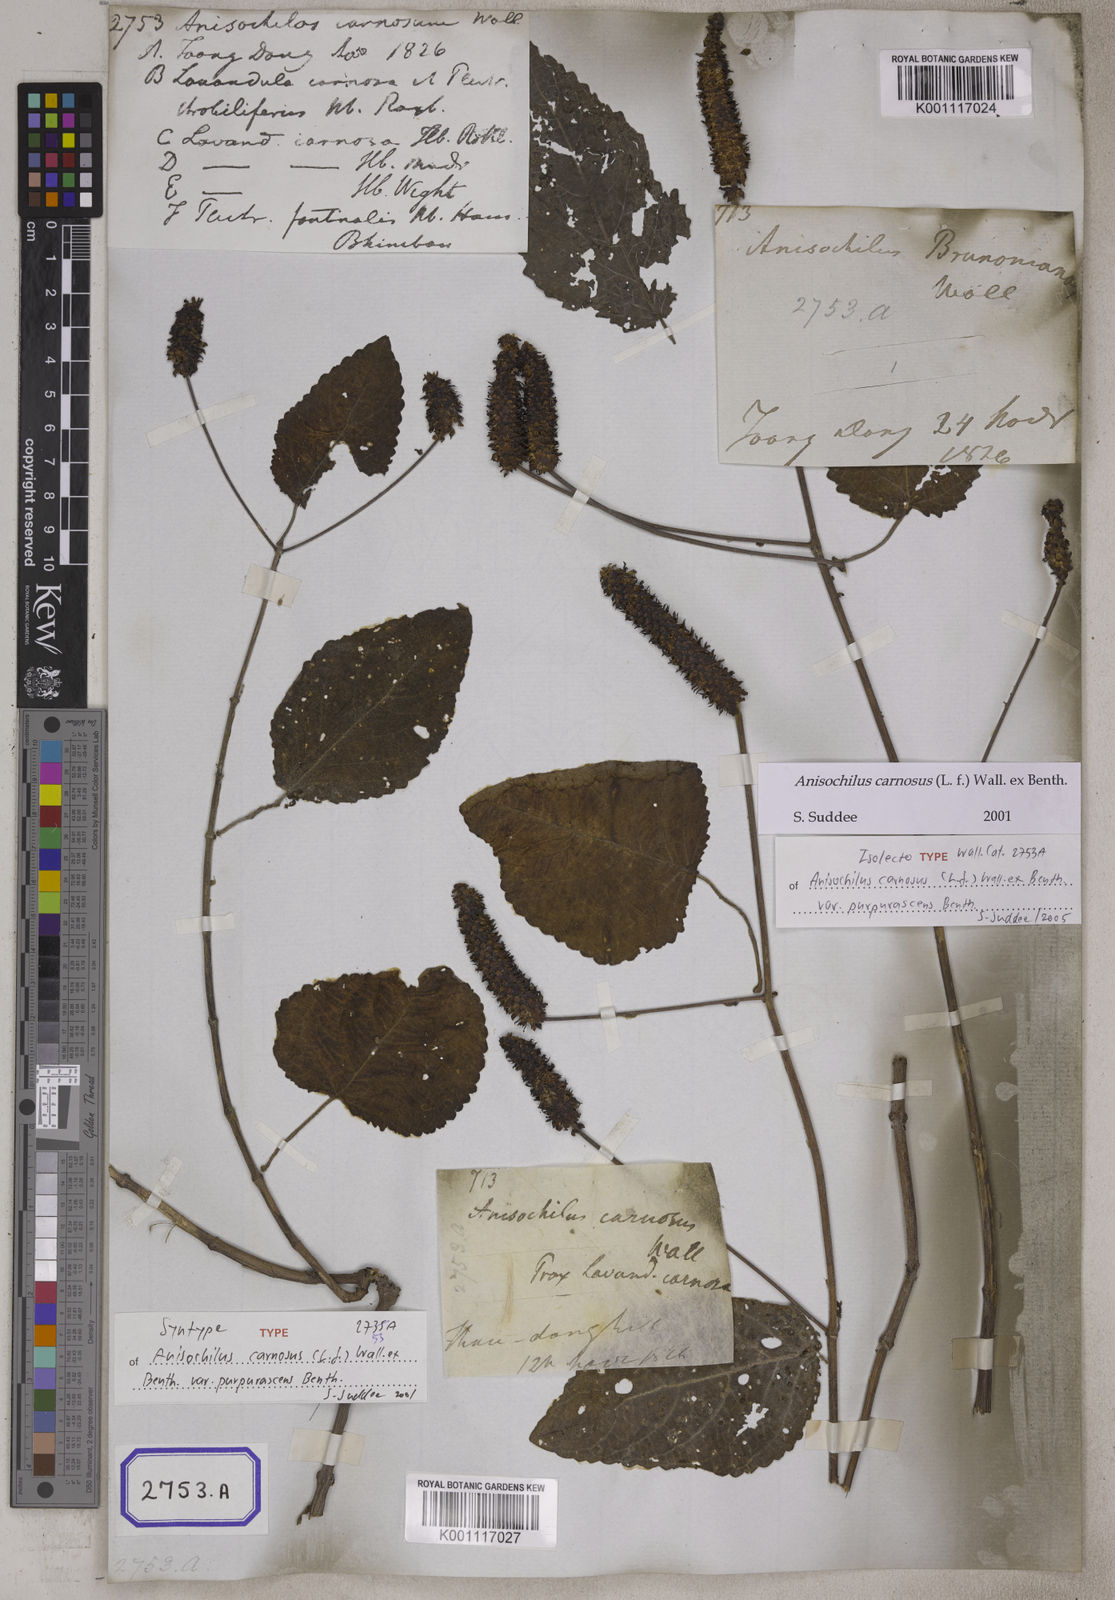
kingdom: Plantae
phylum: Tracheophyta
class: Magnoliopsida
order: Lamiales
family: Lamiaceae
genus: Anisochilus
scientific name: Anisochilus
